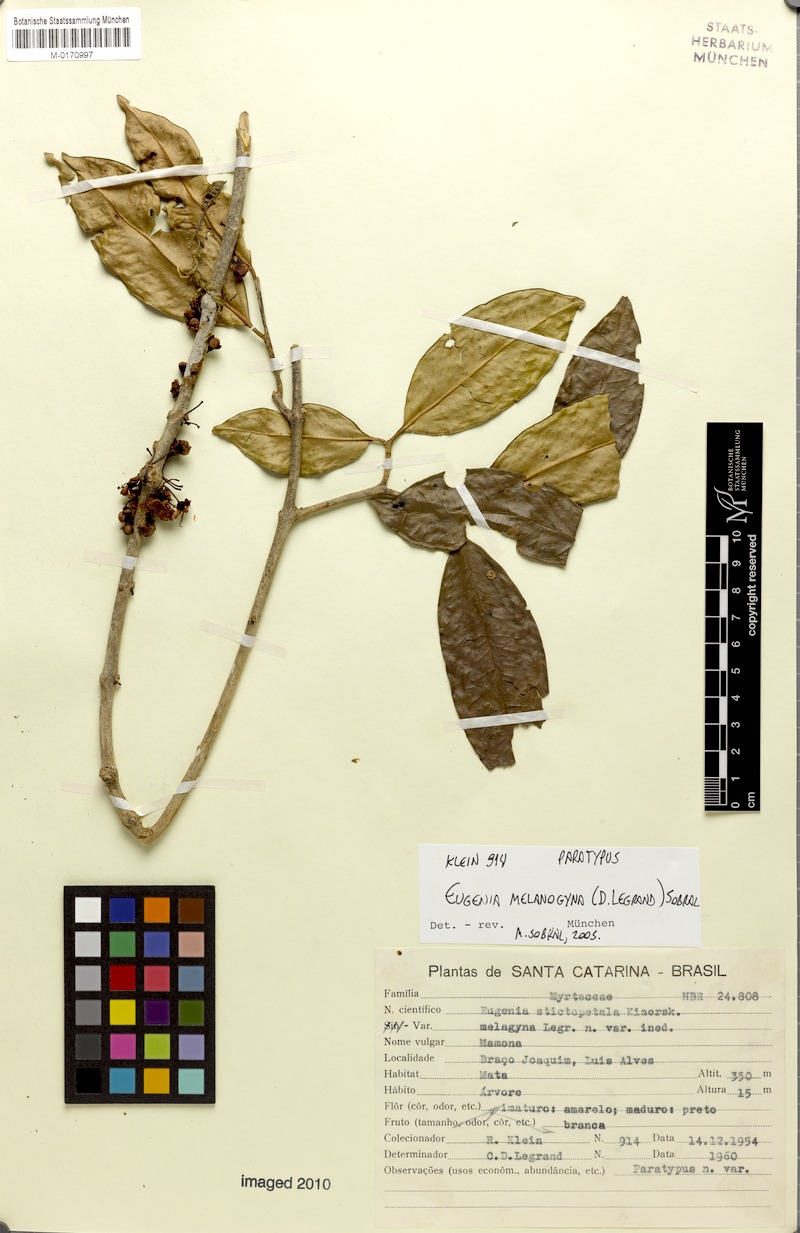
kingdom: Plantae
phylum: Tracheophyta
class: Magnoliopsida
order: Myrtales
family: Myrtaceae
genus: Eugenia
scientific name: Eugenia melanogyna
